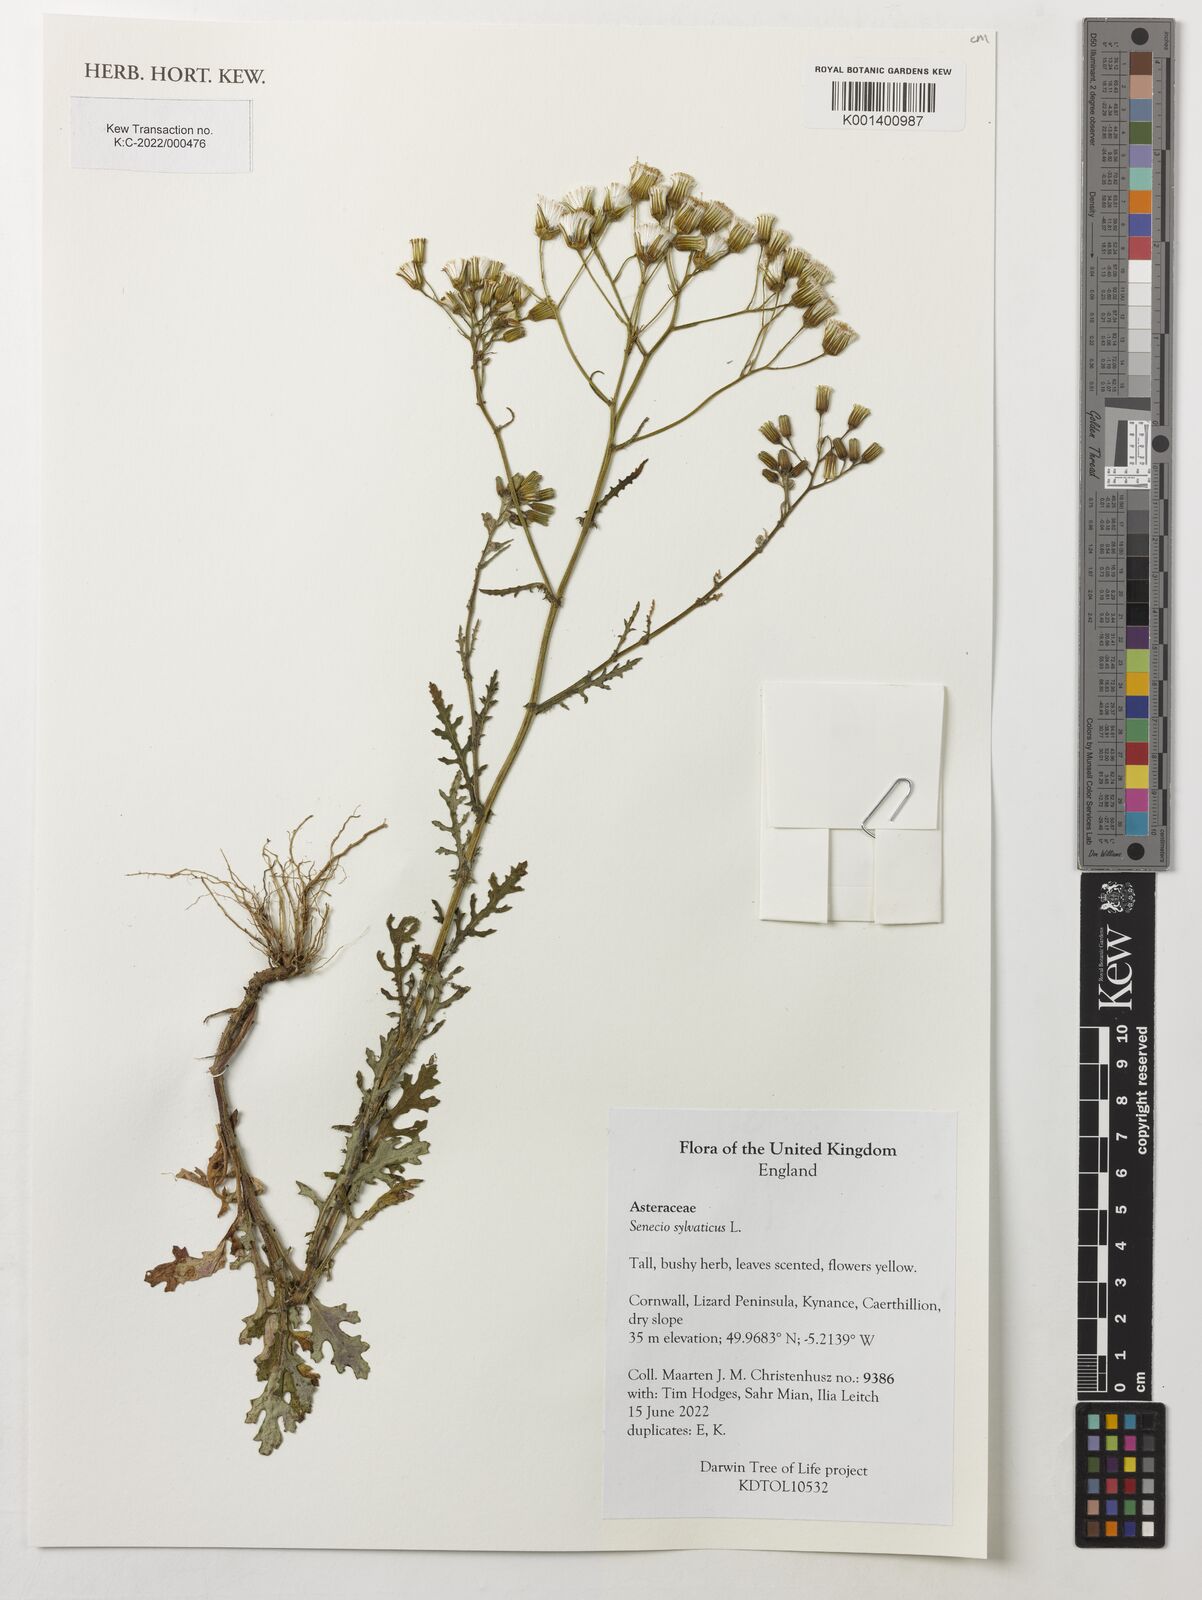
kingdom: Plantae
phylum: Tracheophyta
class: Magnoliopsida
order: Asterales
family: Asteraceae
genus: Senecio
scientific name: Senecio sylvaticus
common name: Woodland ragwort
